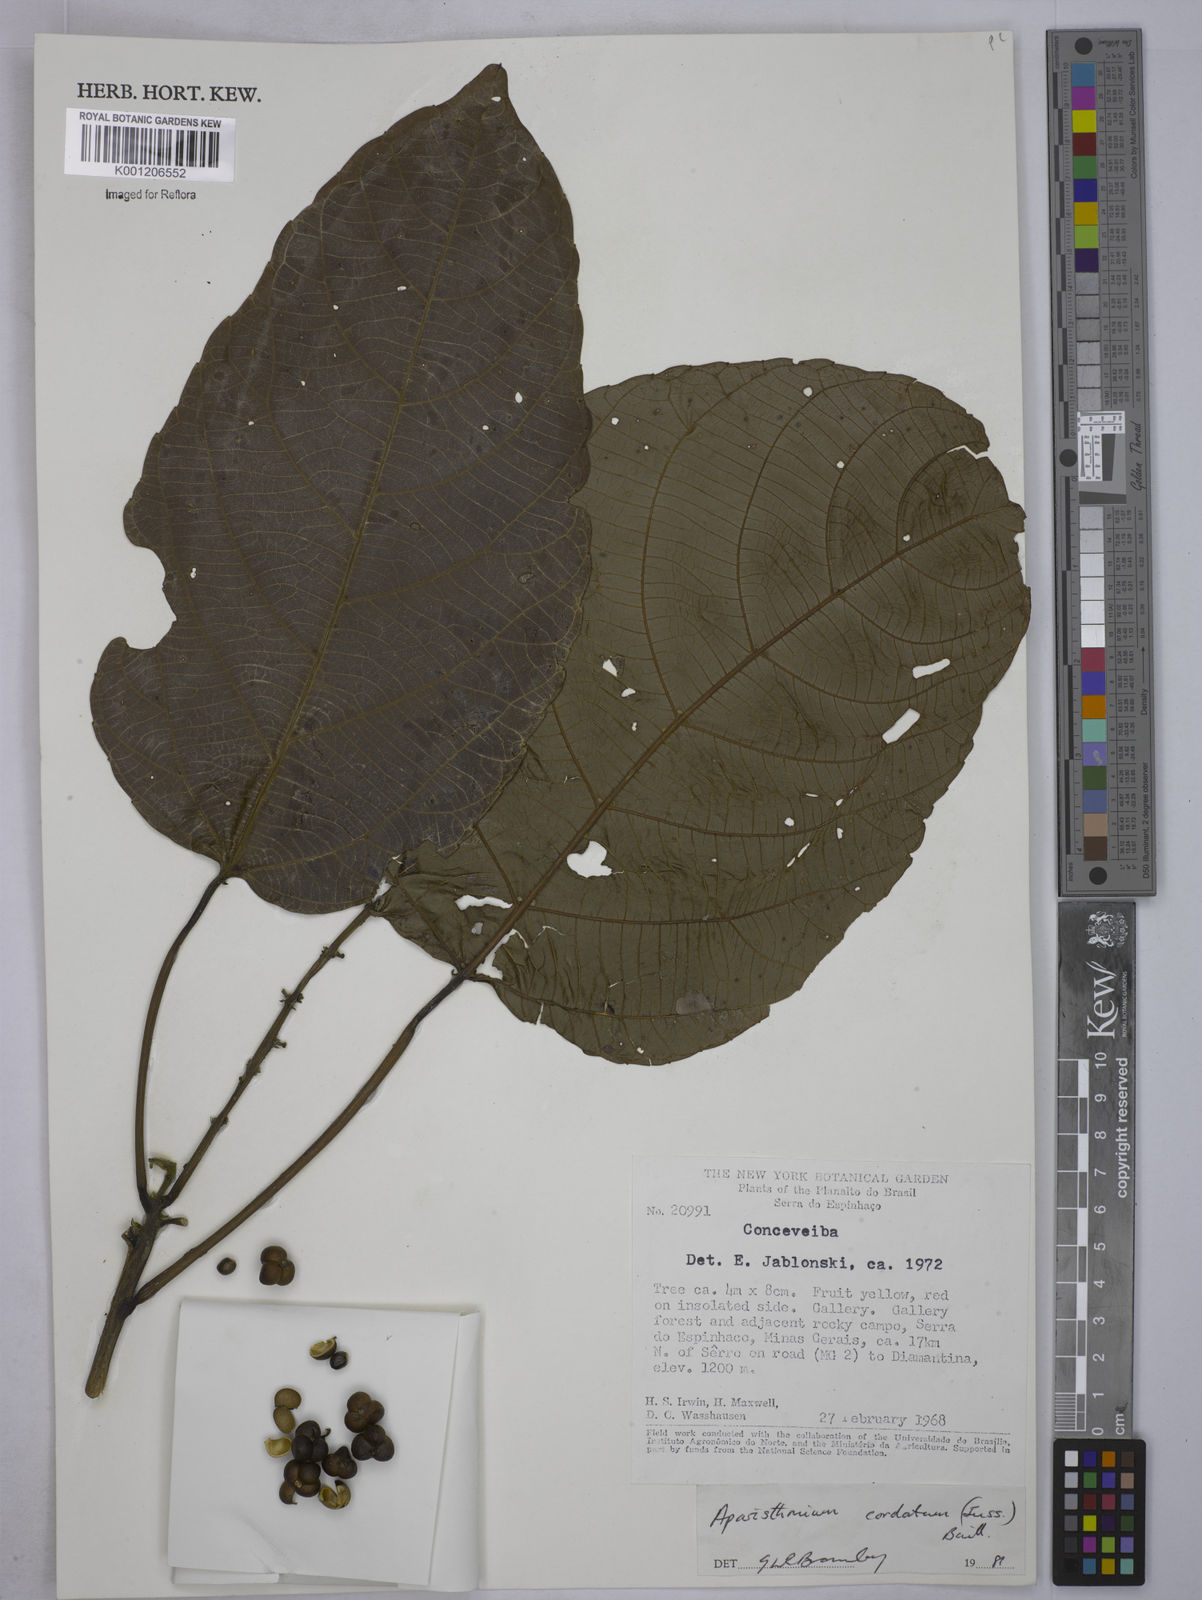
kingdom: Plantae
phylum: Tracheophyta
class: Magnoliopsida
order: Malpighiales
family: Euphorbiaceae
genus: Aparisthmium
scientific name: Aparisthmium cordatum
